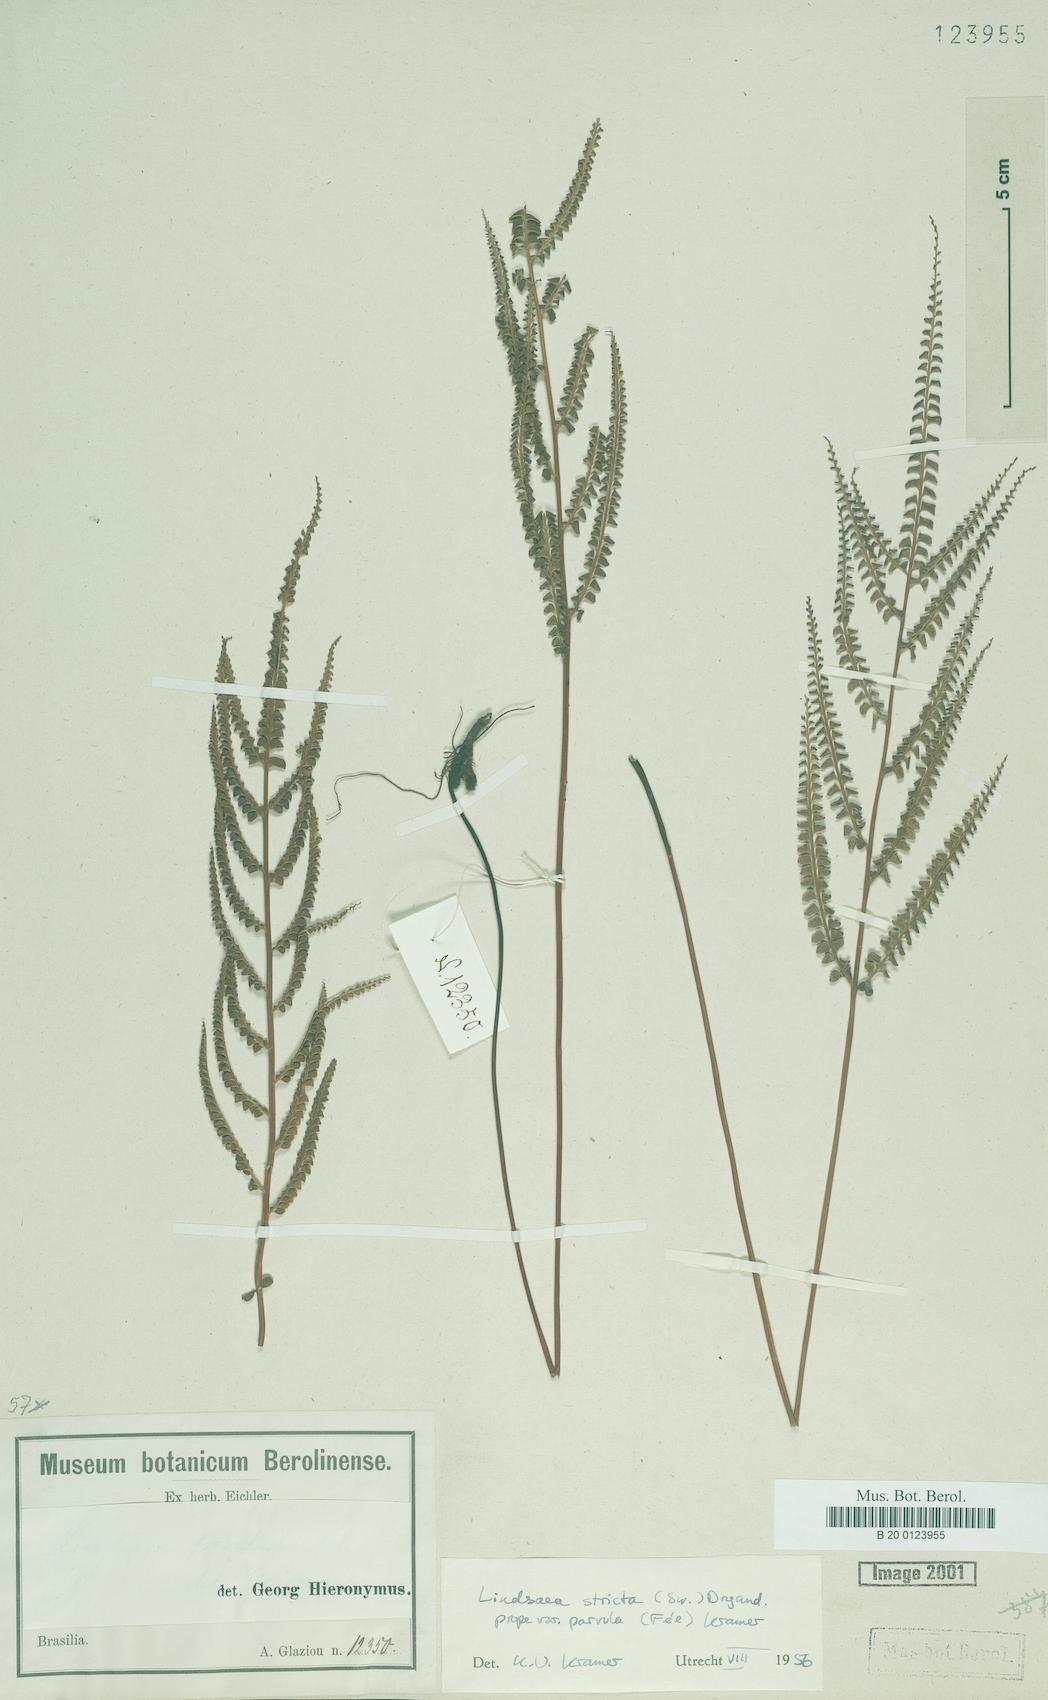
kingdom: Plantae
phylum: Tracheophyta
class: Polypodiopsida
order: Polypodiales
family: Lindsaeaceae
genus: Lindsaea
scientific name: Lindsaea stricta
